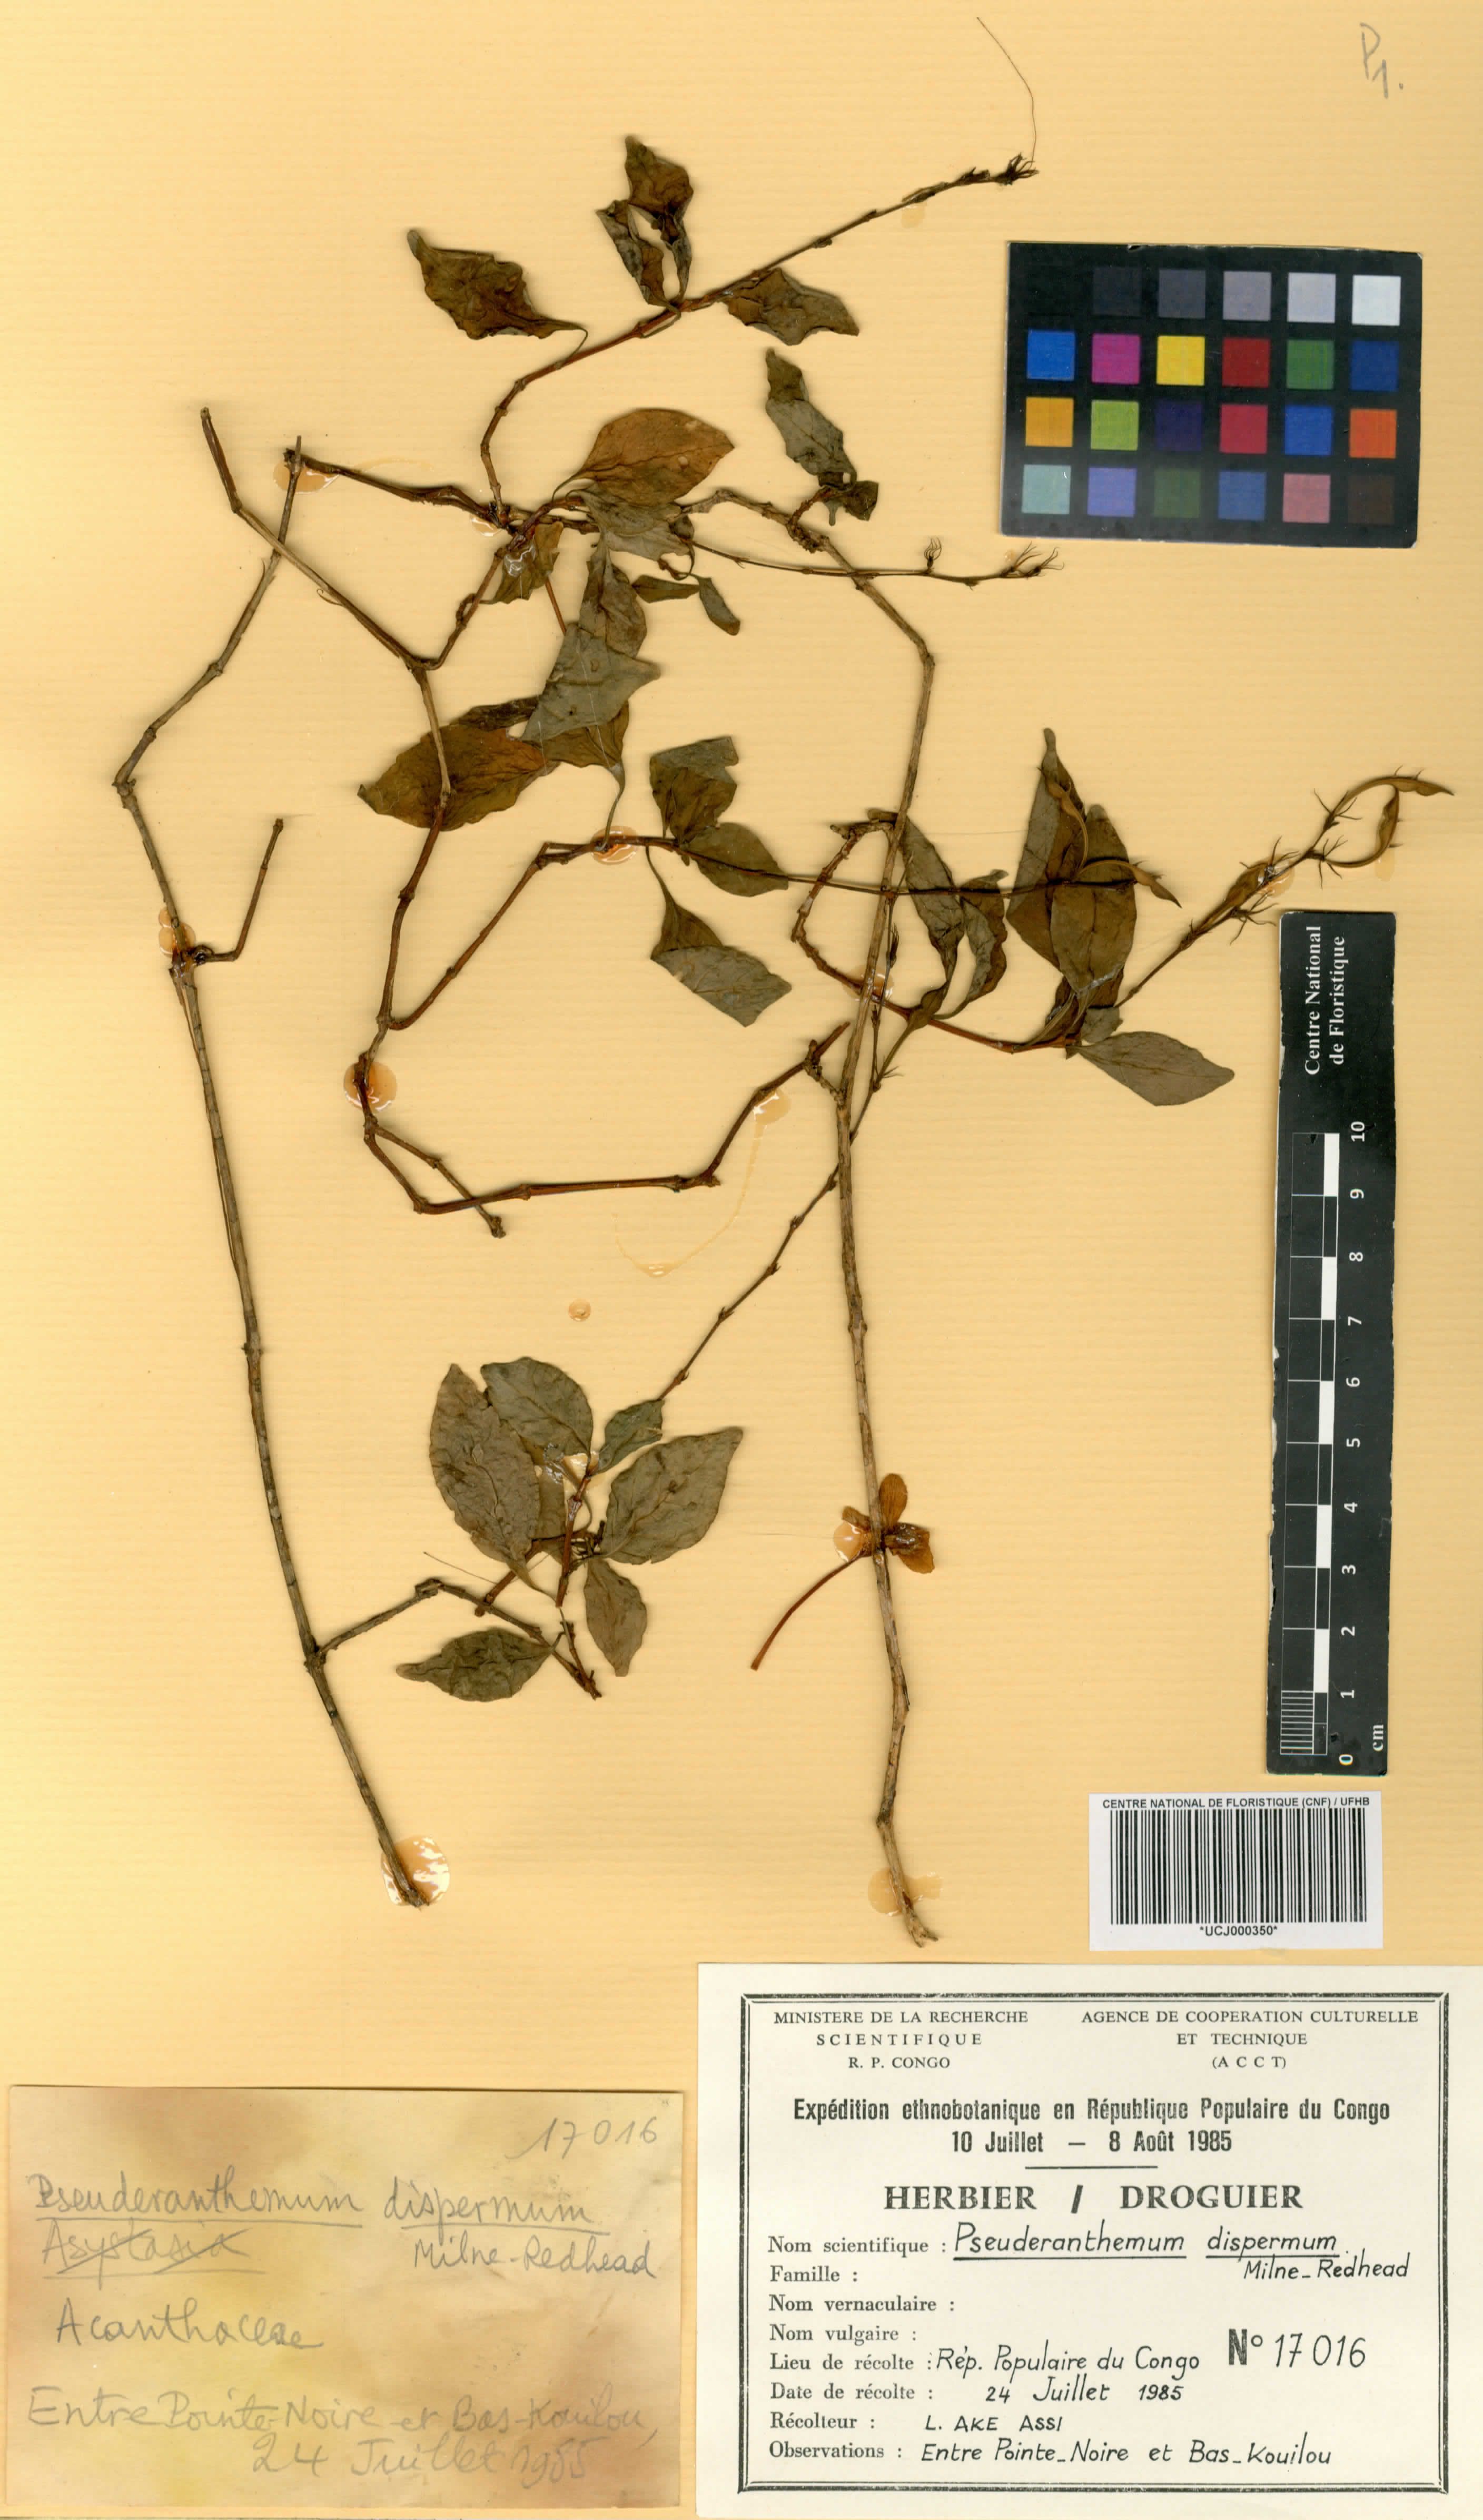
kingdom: Plantae
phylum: Tracheophyta
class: Magnoliopsida
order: Lamiales
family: Acanthaceae
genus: Pseuderanthemum
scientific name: Pseuderanthemum dispermum
